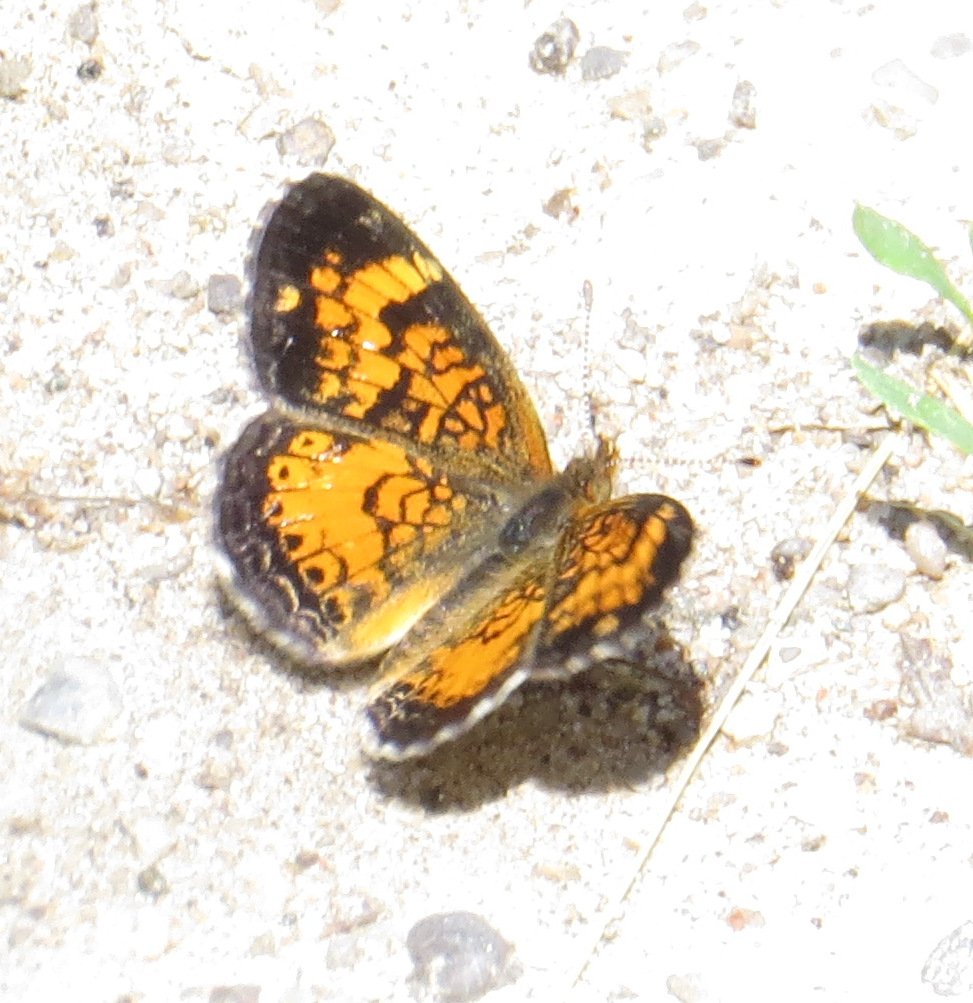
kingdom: Animalia
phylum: Arthropoda
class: Insecta
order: Lepidoptera
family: Nymphalidae
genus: Phyciodes
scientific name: Phyciodes tharos
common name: Northern Crescent
